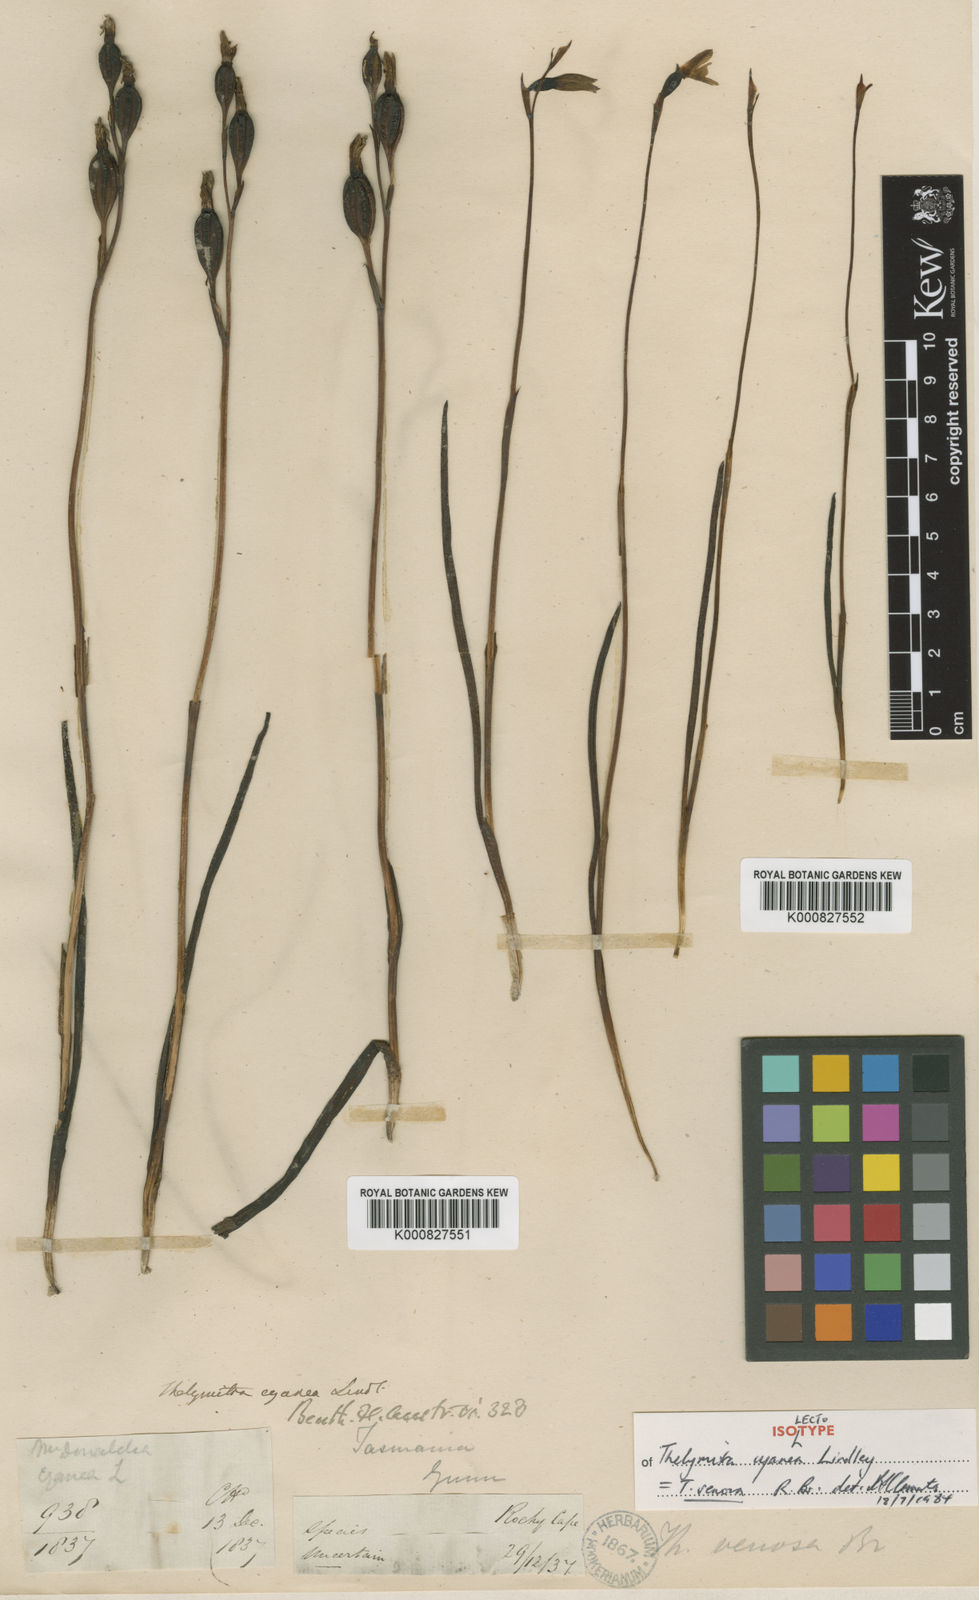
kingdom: Plantae
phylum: Tracheophyta
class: Liliopsida
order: Asparagales
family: Orchidaceae
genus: Thelymitra
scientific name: Thelymitra venosa
